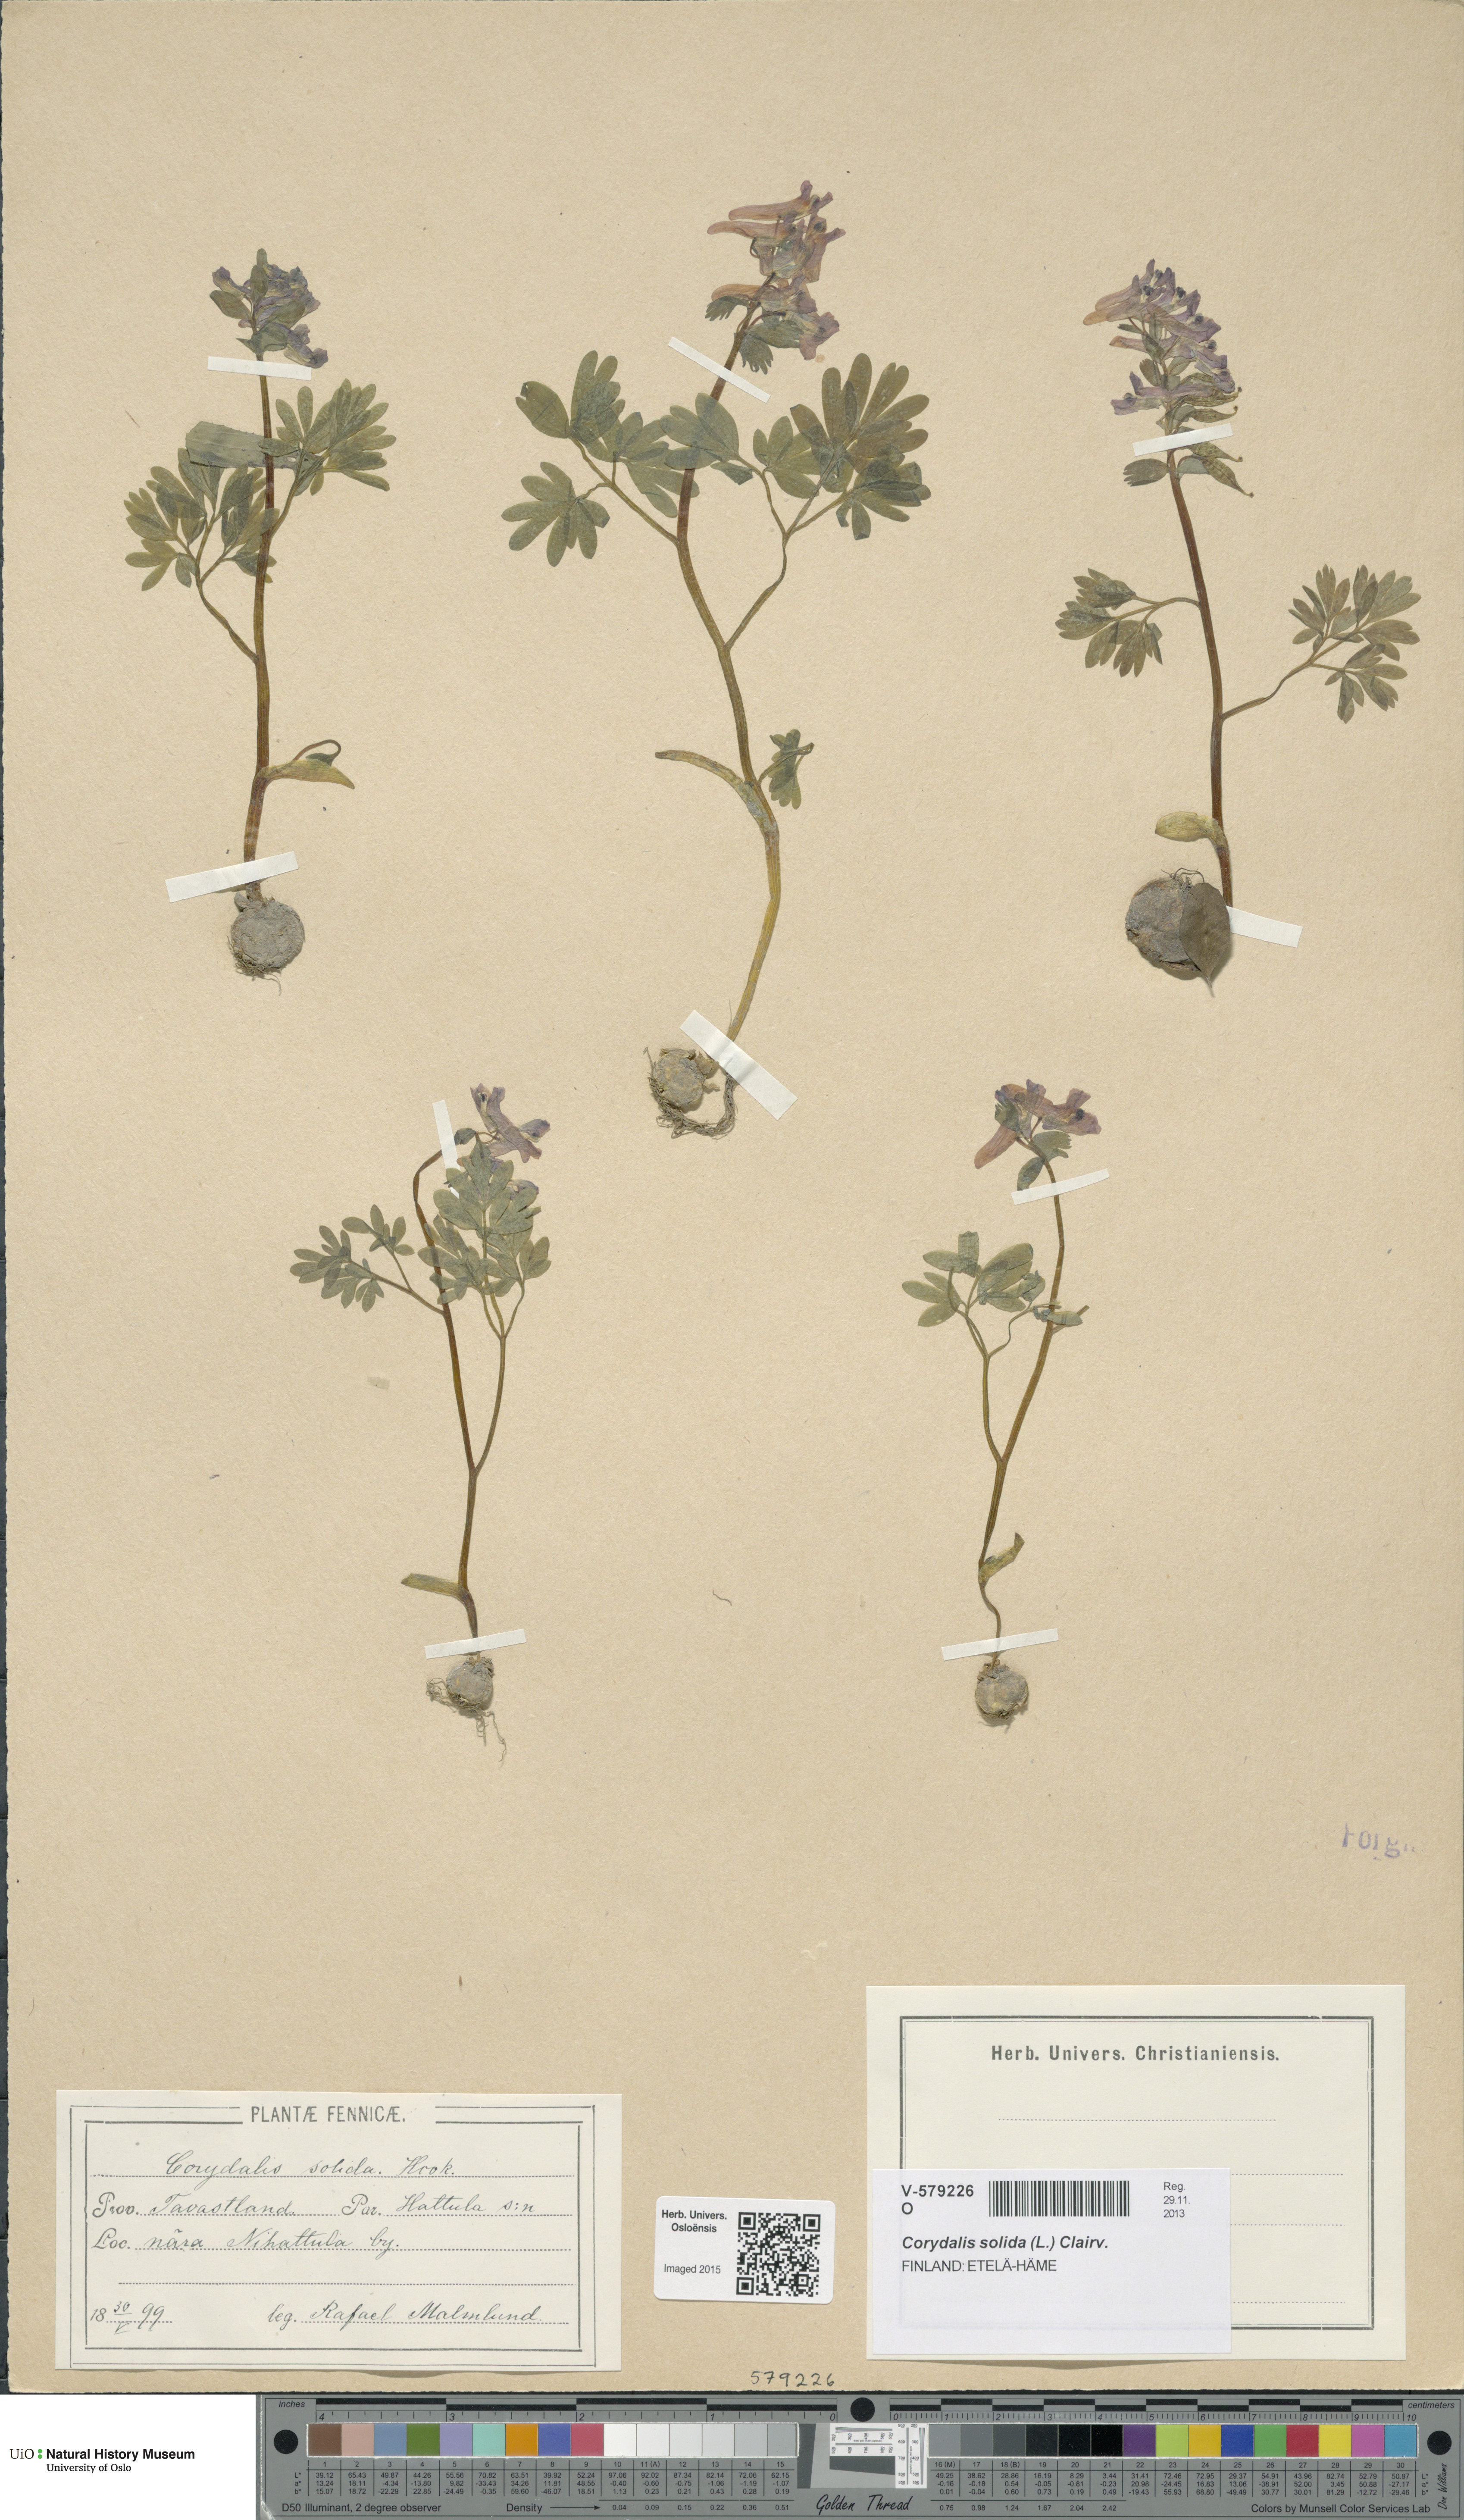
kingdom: Plantae
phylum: Tracheophyta
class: Magnoliopsida
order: Ranunculales
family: Papaveraceae
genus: Corydalis
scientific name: Corydalis solida
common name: Bird-in-a-bush
